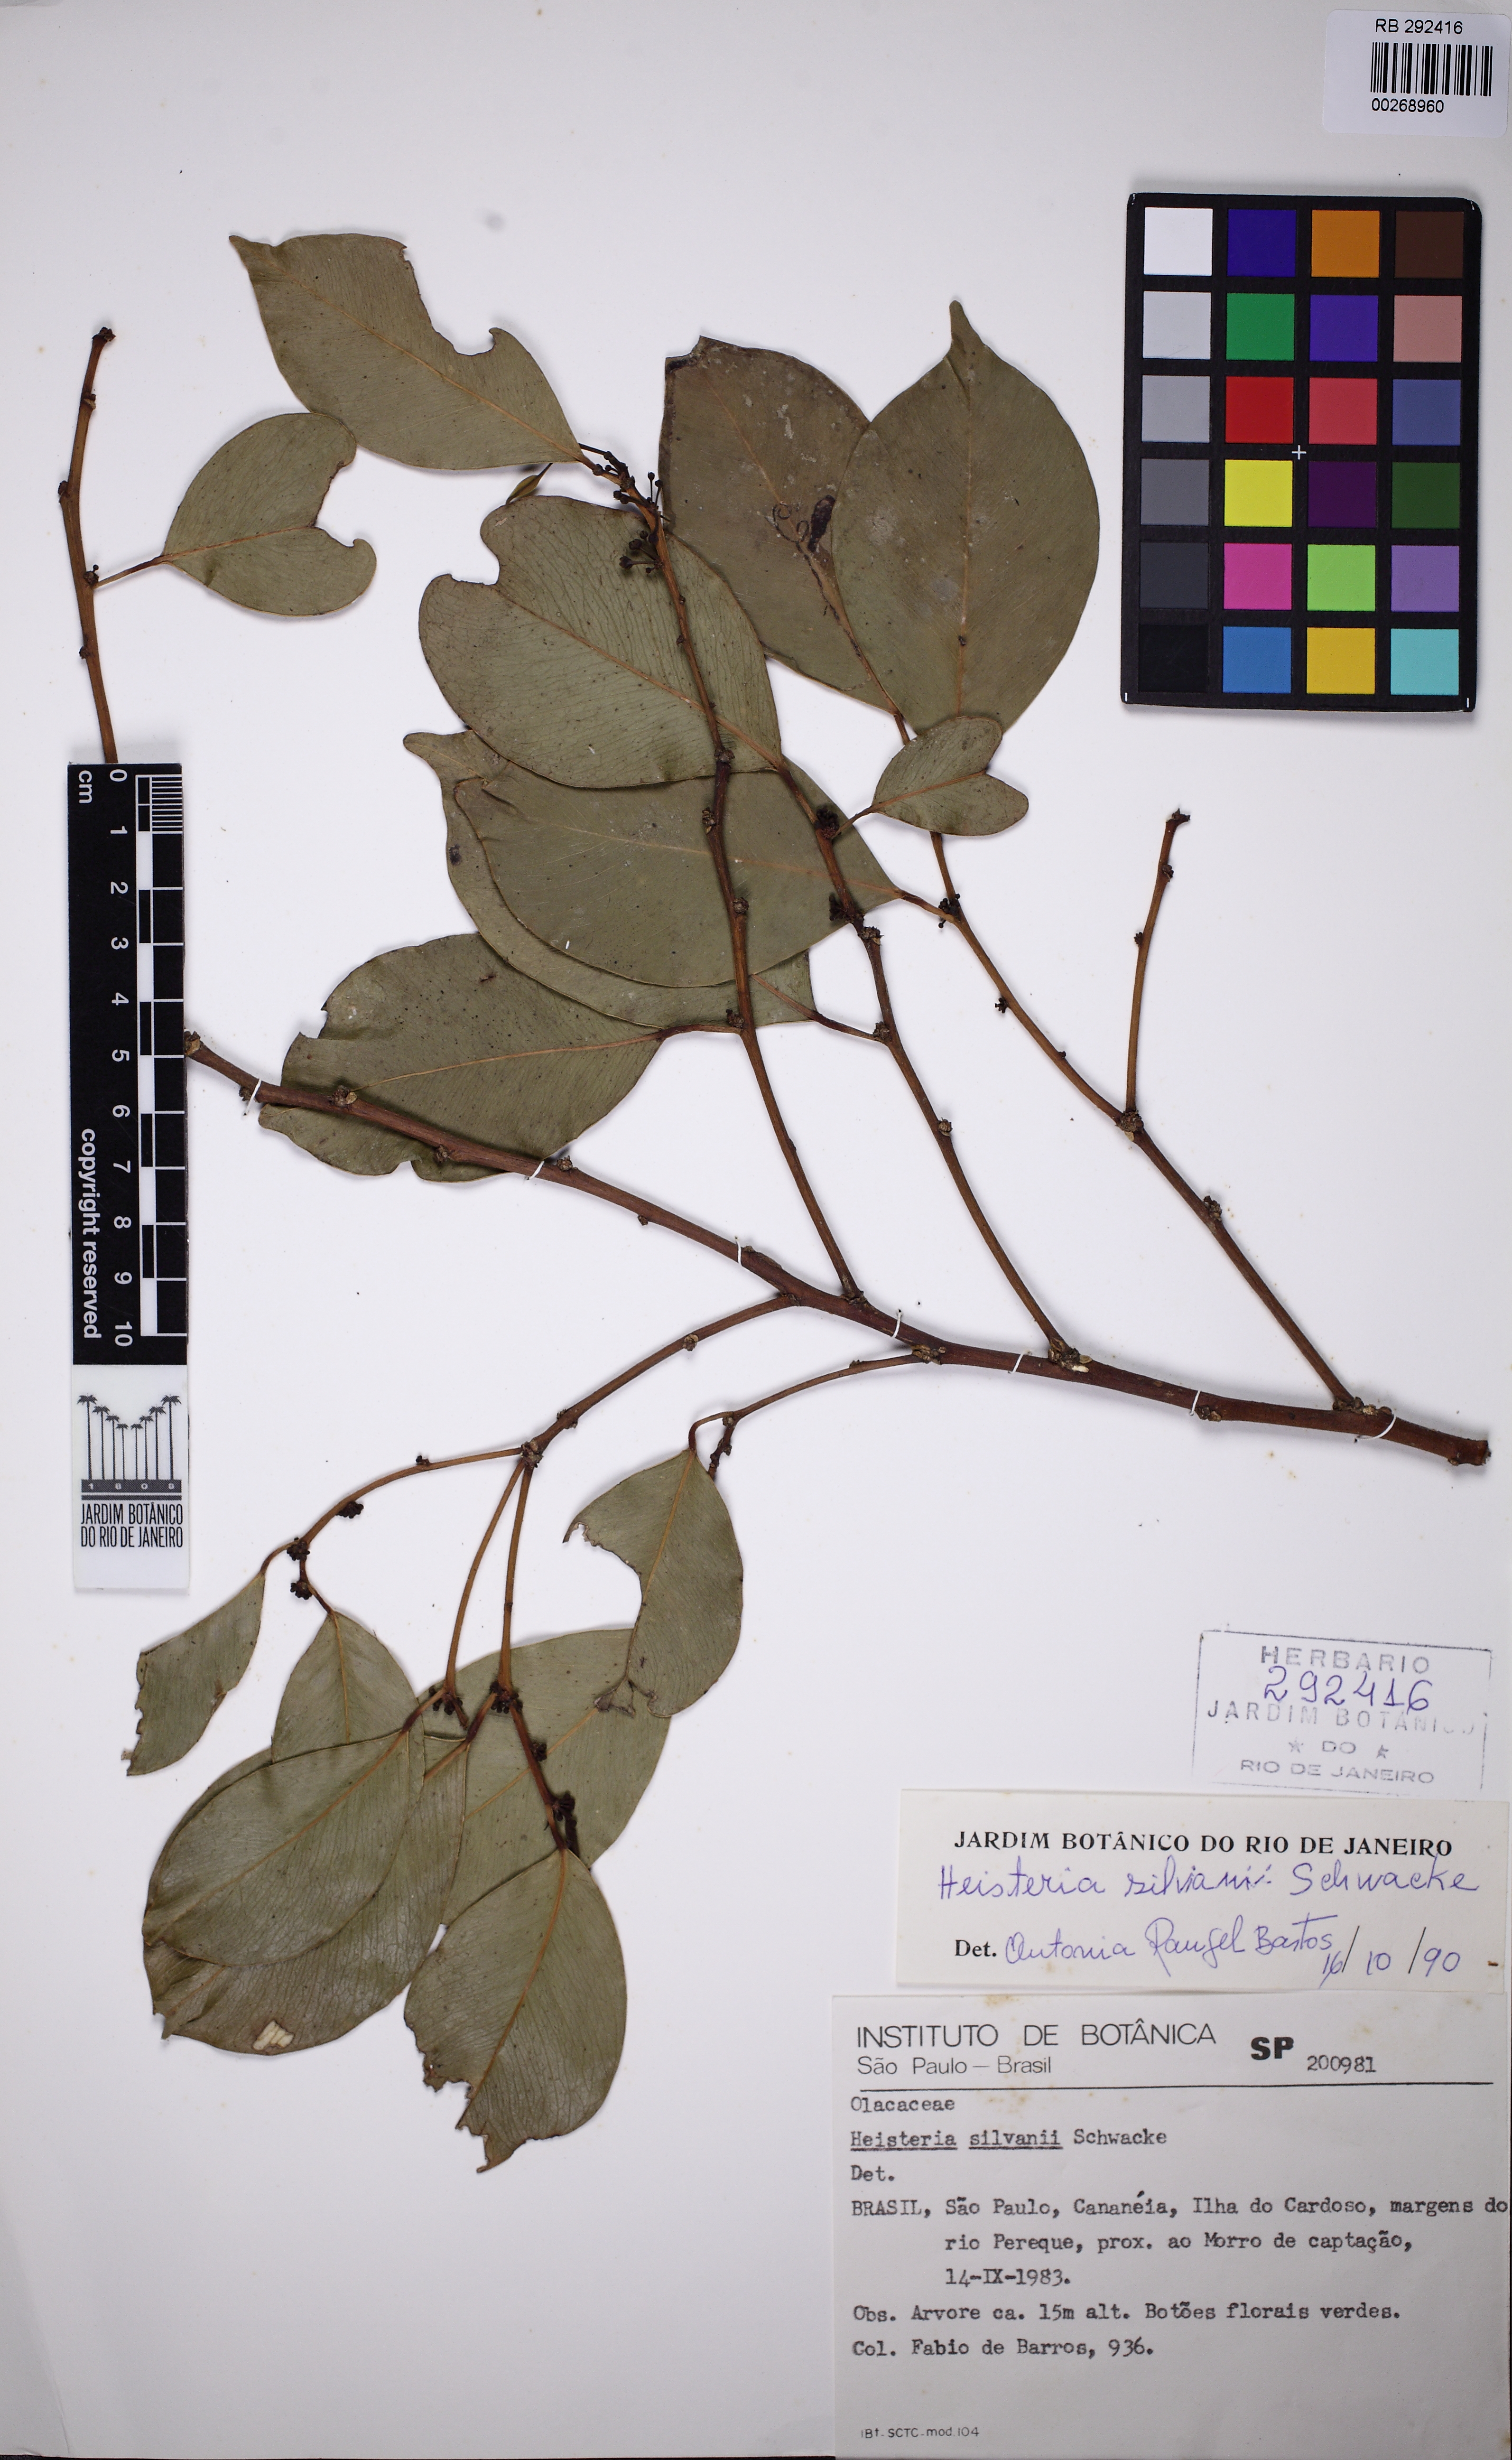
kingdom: Plantae
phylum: Tracheophyta
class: Magnoliopsida
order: Santalales
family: Erythropalaceae
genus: Heisteria
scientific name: Heisteria silvianii
